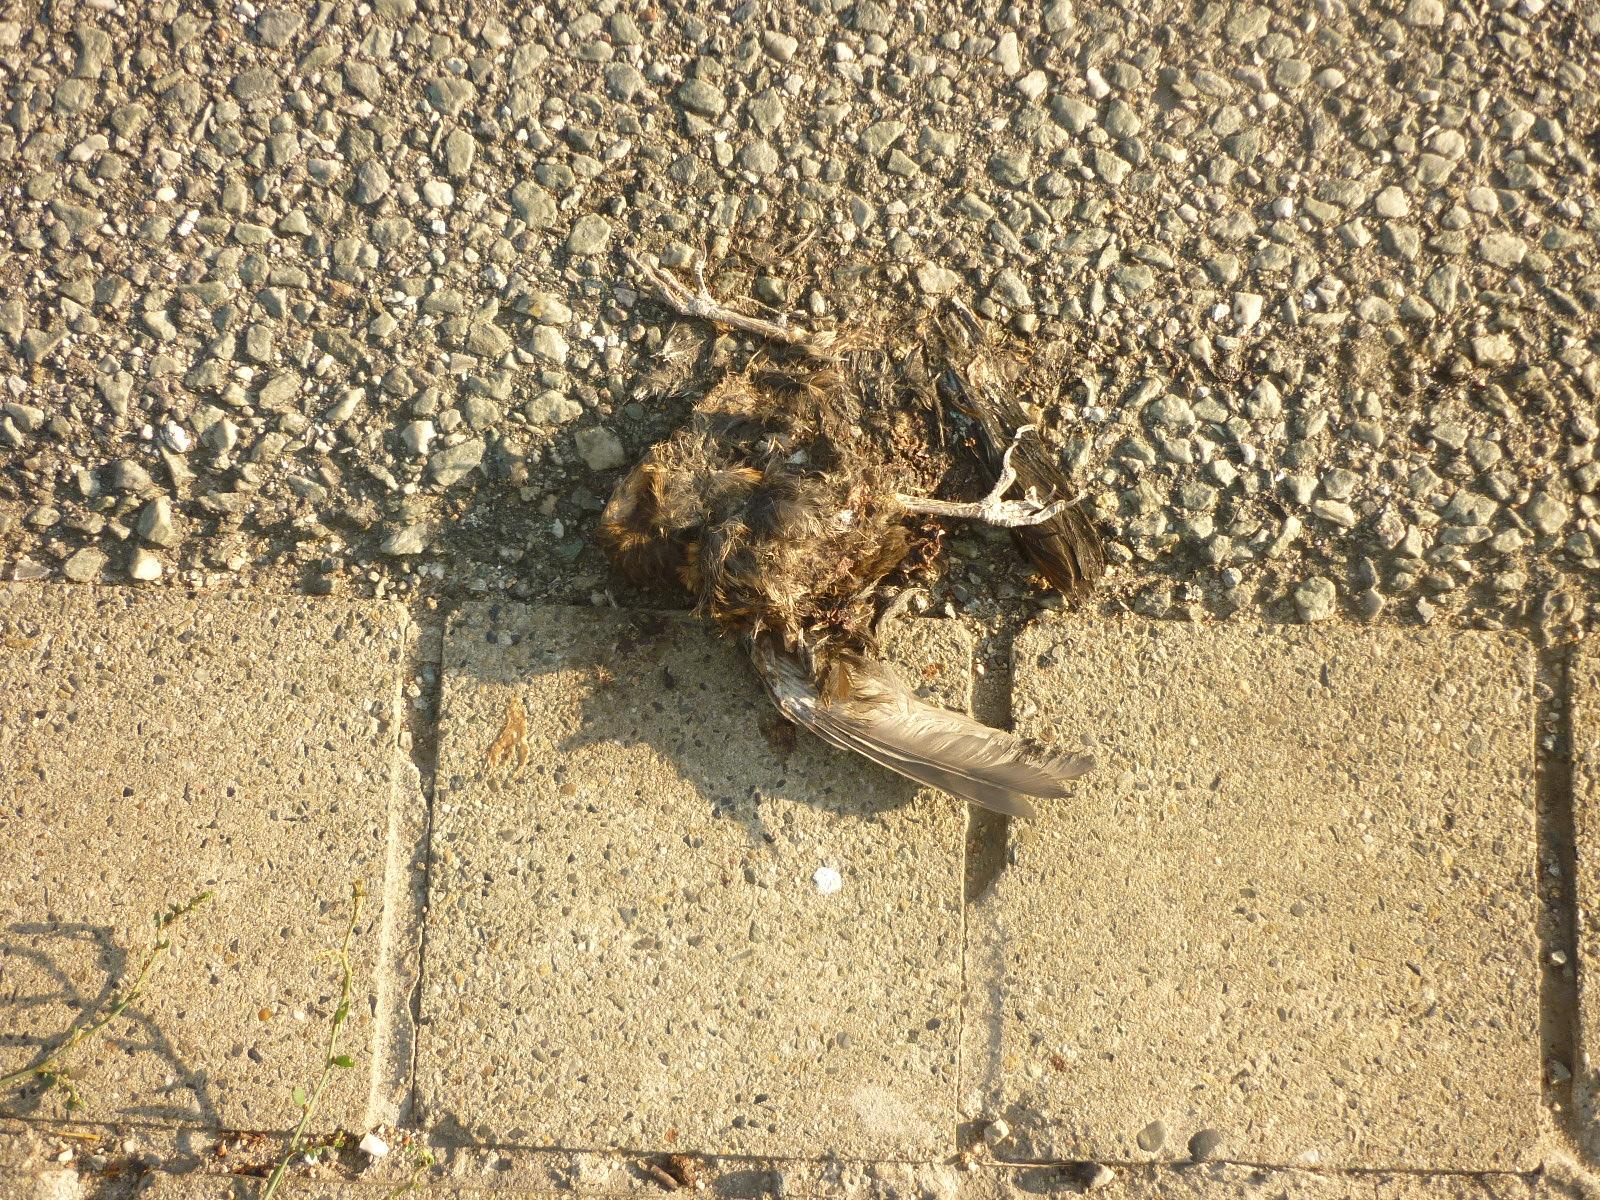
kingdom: Animalia
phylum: Chordata
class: Aves
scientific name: Aves
